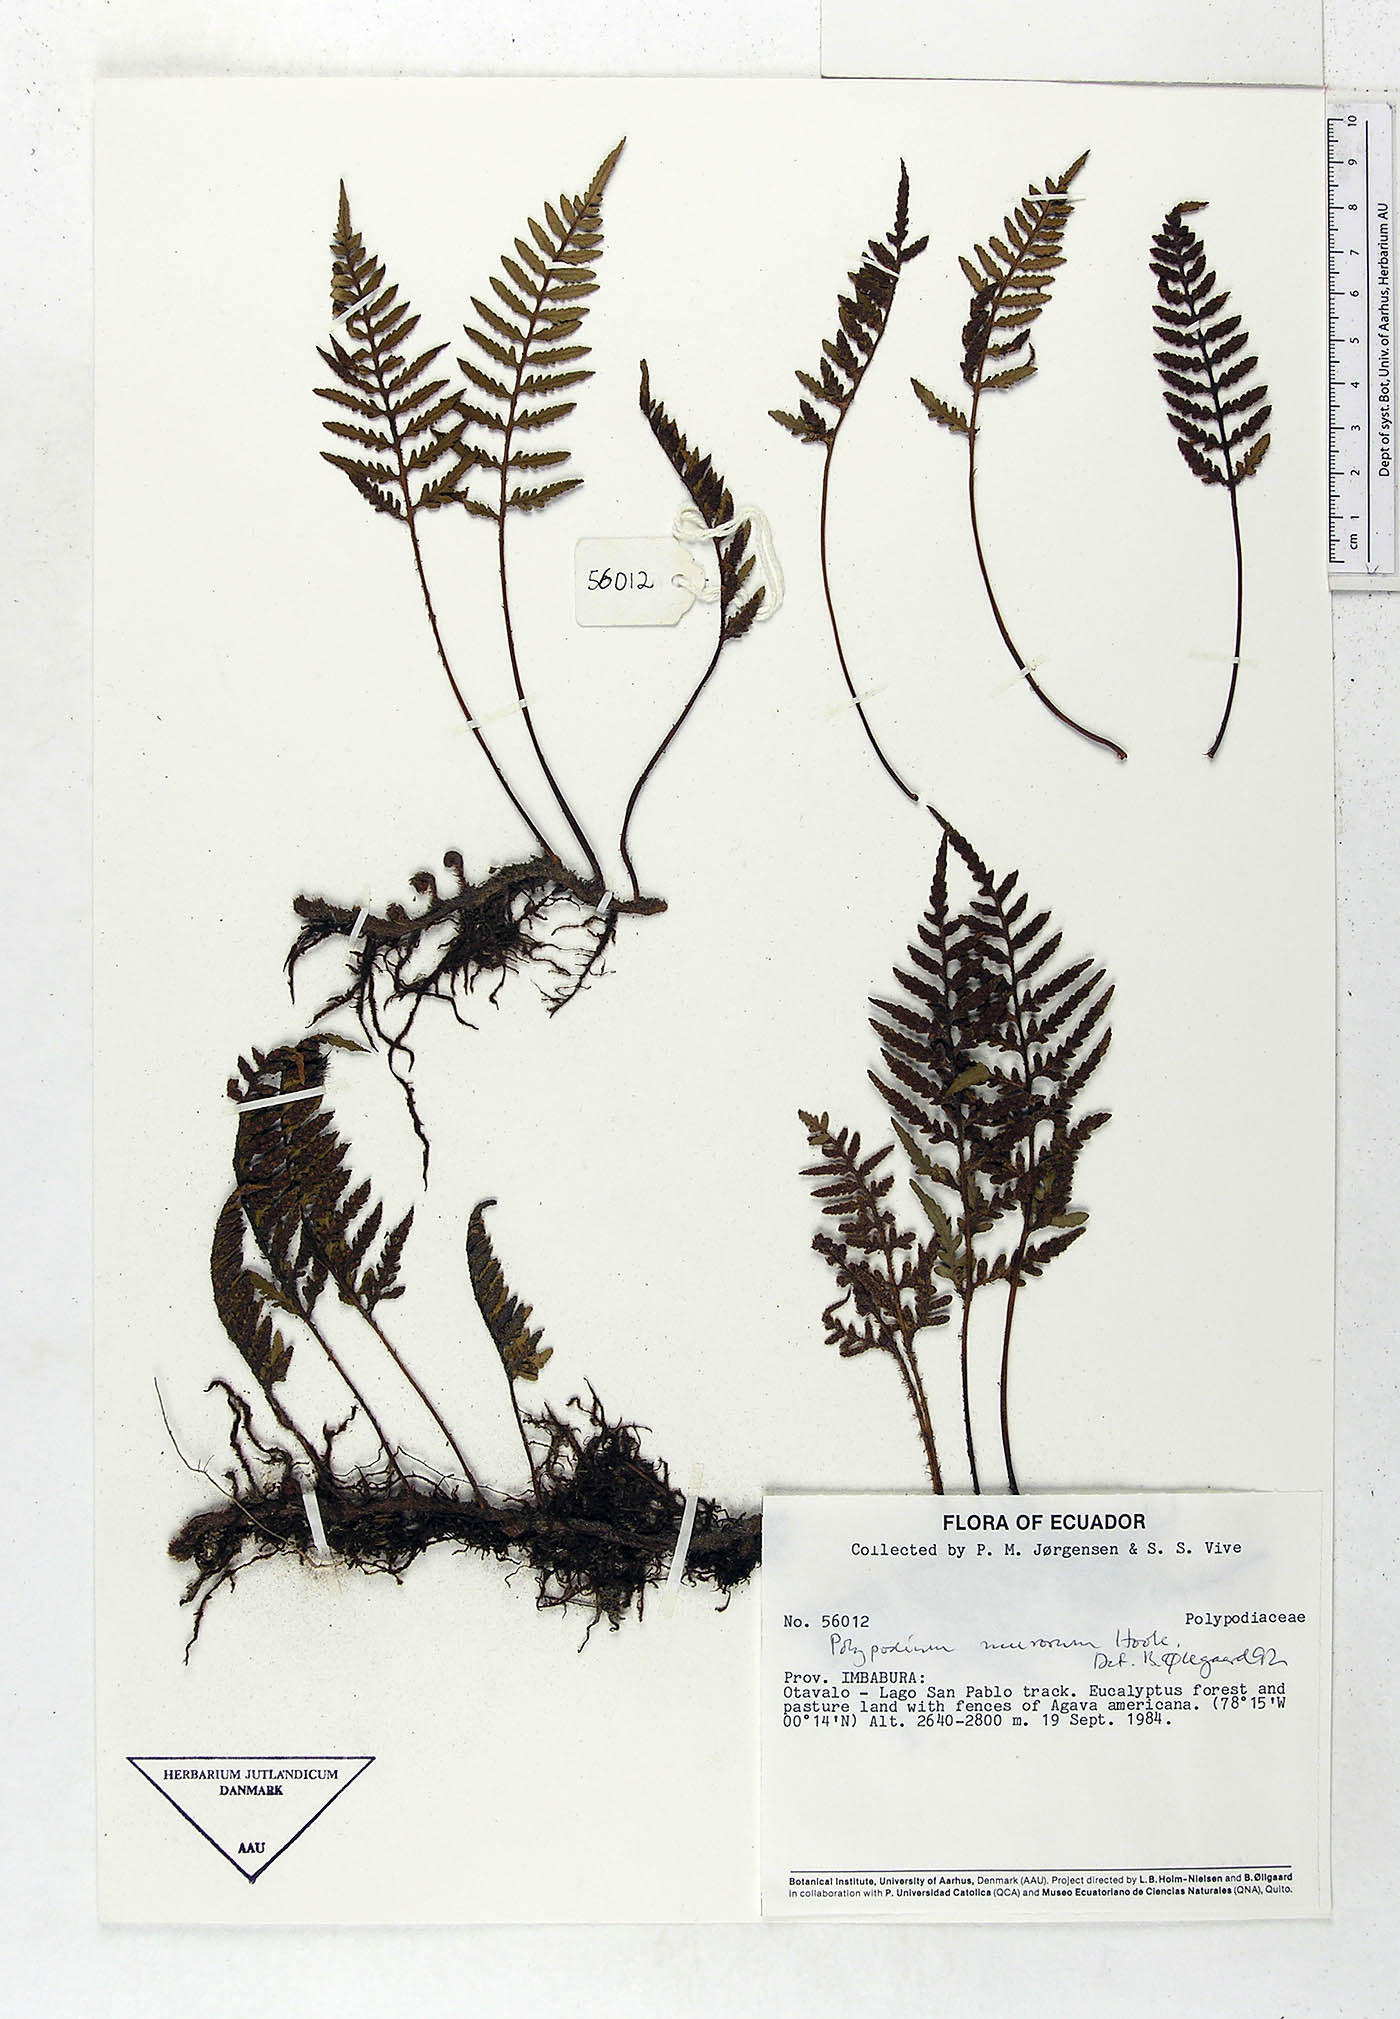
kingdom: Plantae
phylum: Tracheophyta
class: Polypodiopsida
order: Polypodiales
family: Polypodiaceae
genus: Pleopeltis
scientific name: Pleopeltis murora
